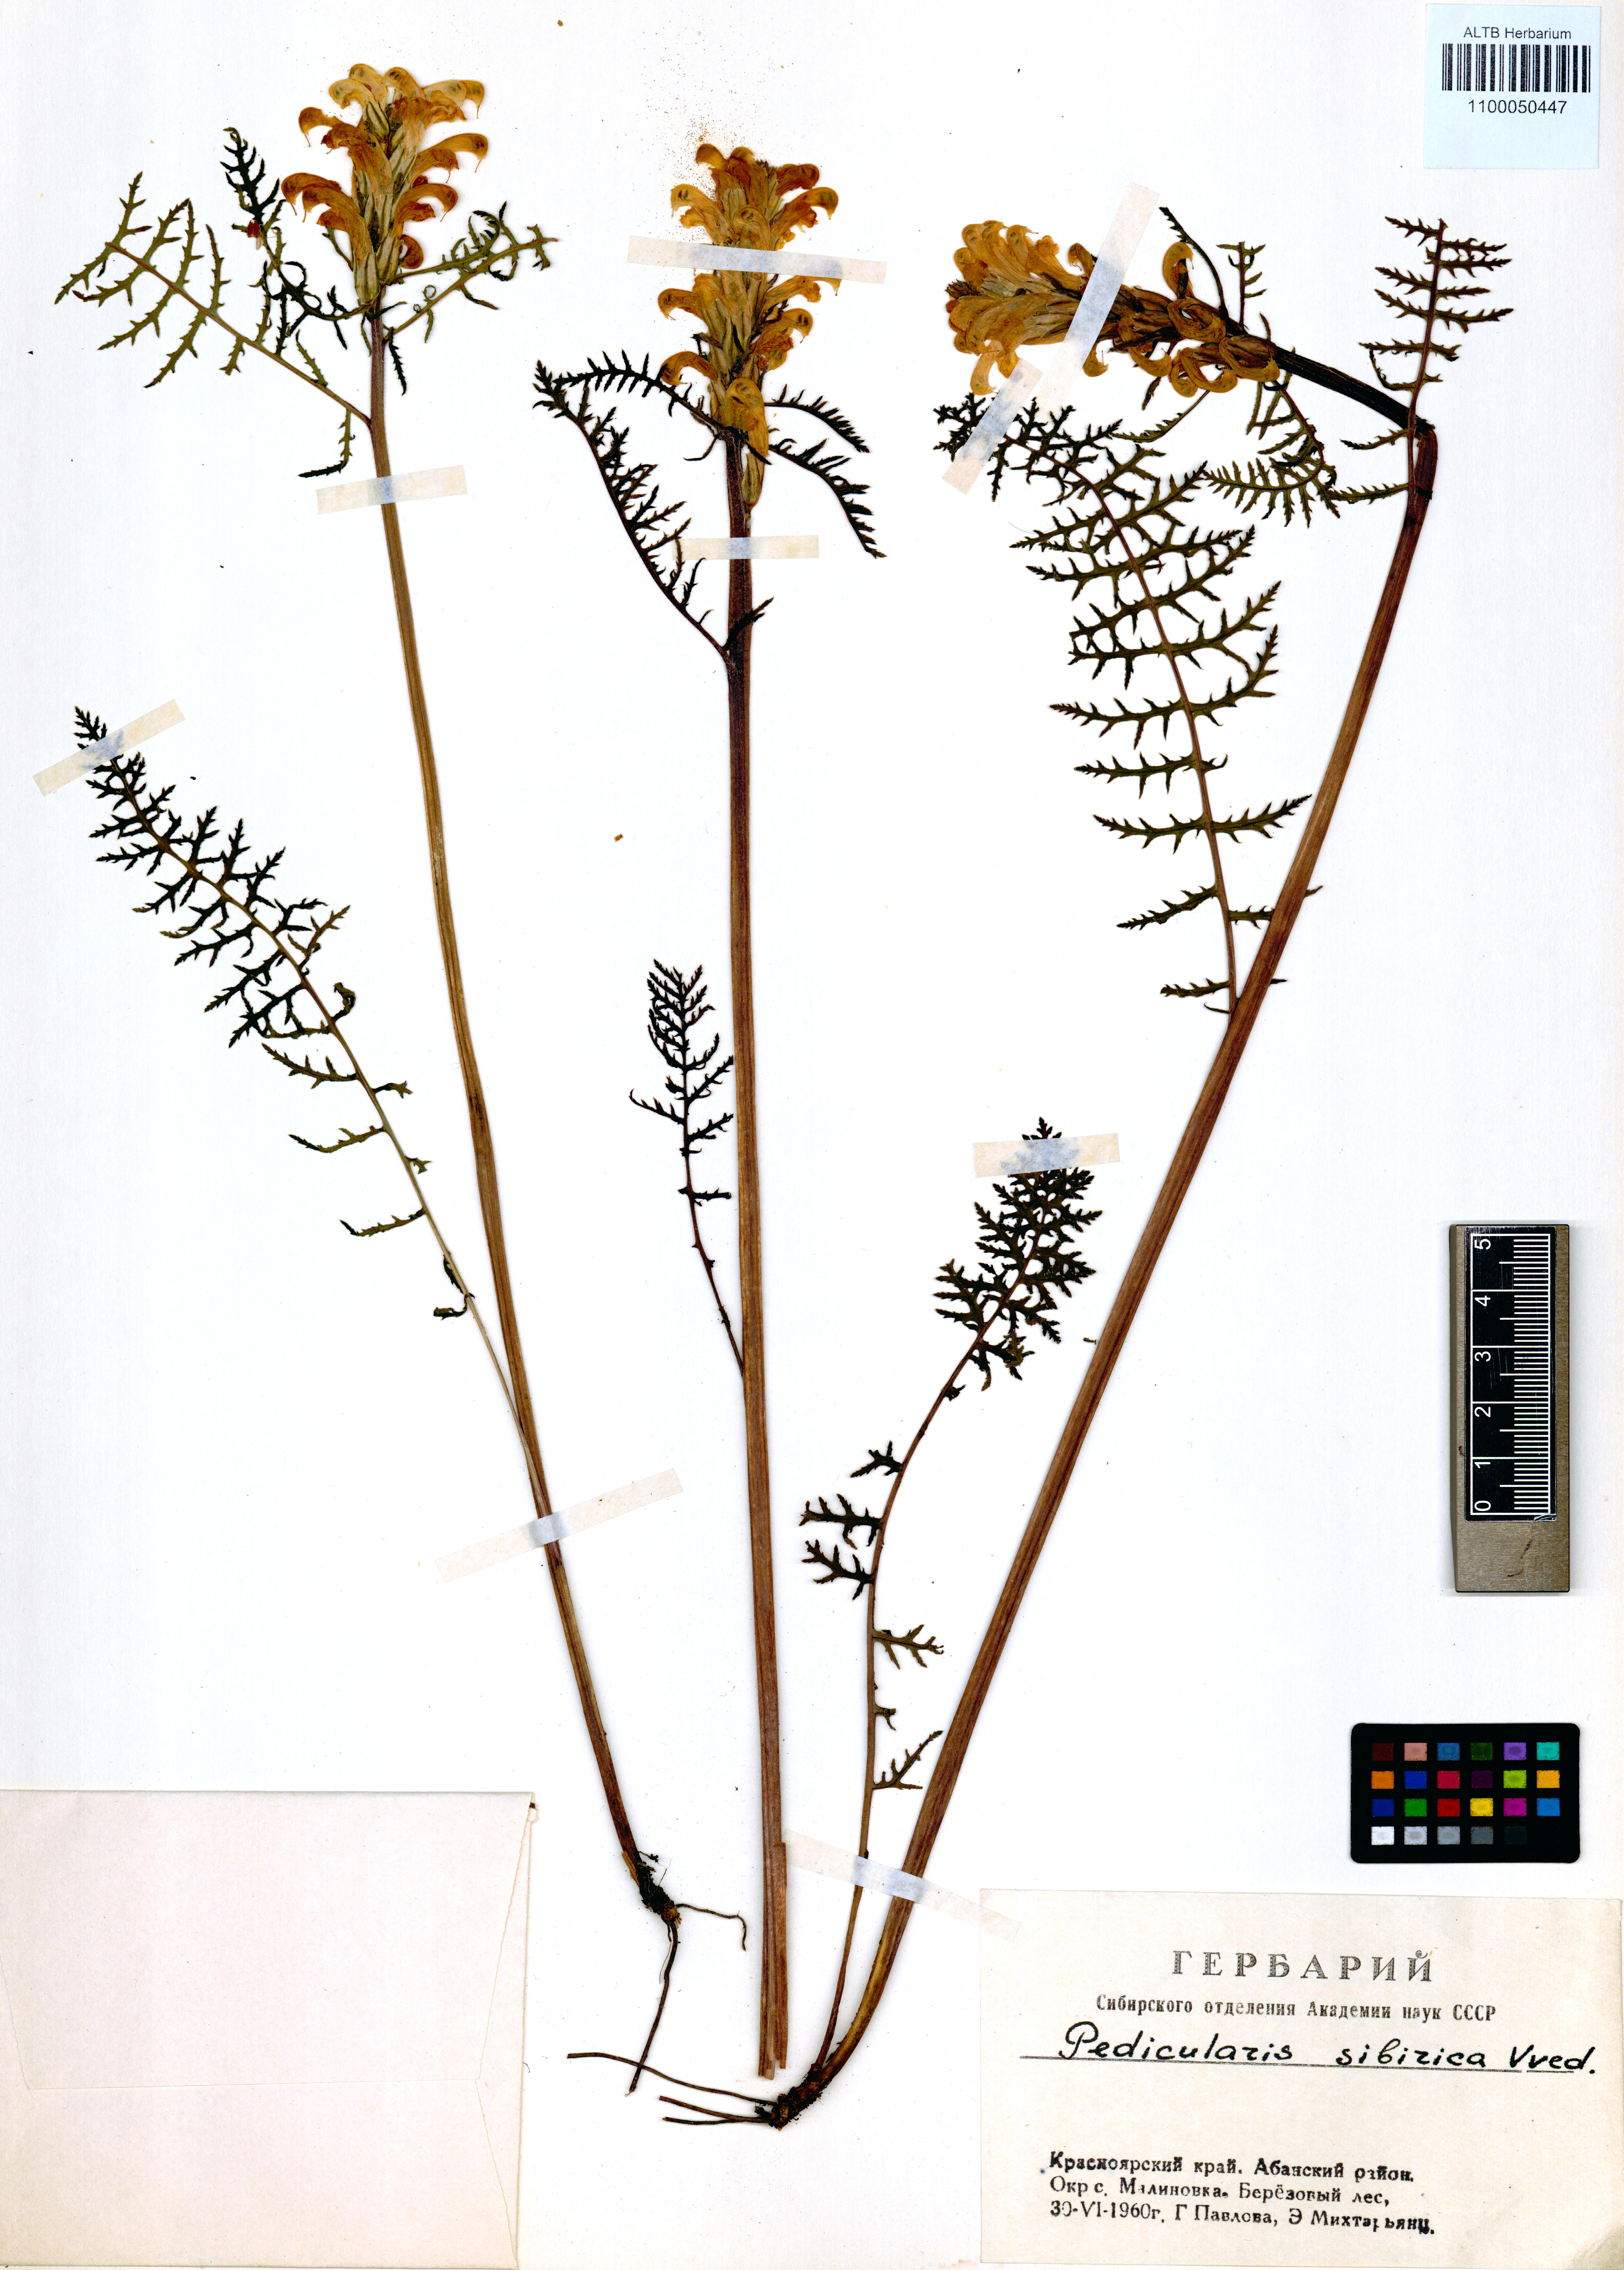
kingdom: Plantae
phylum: Tracheophyta
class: Magnoliopsida
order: Lamiales
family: Orobanchaceae
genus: Pedicularis
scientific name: Pedicularis sibirica
